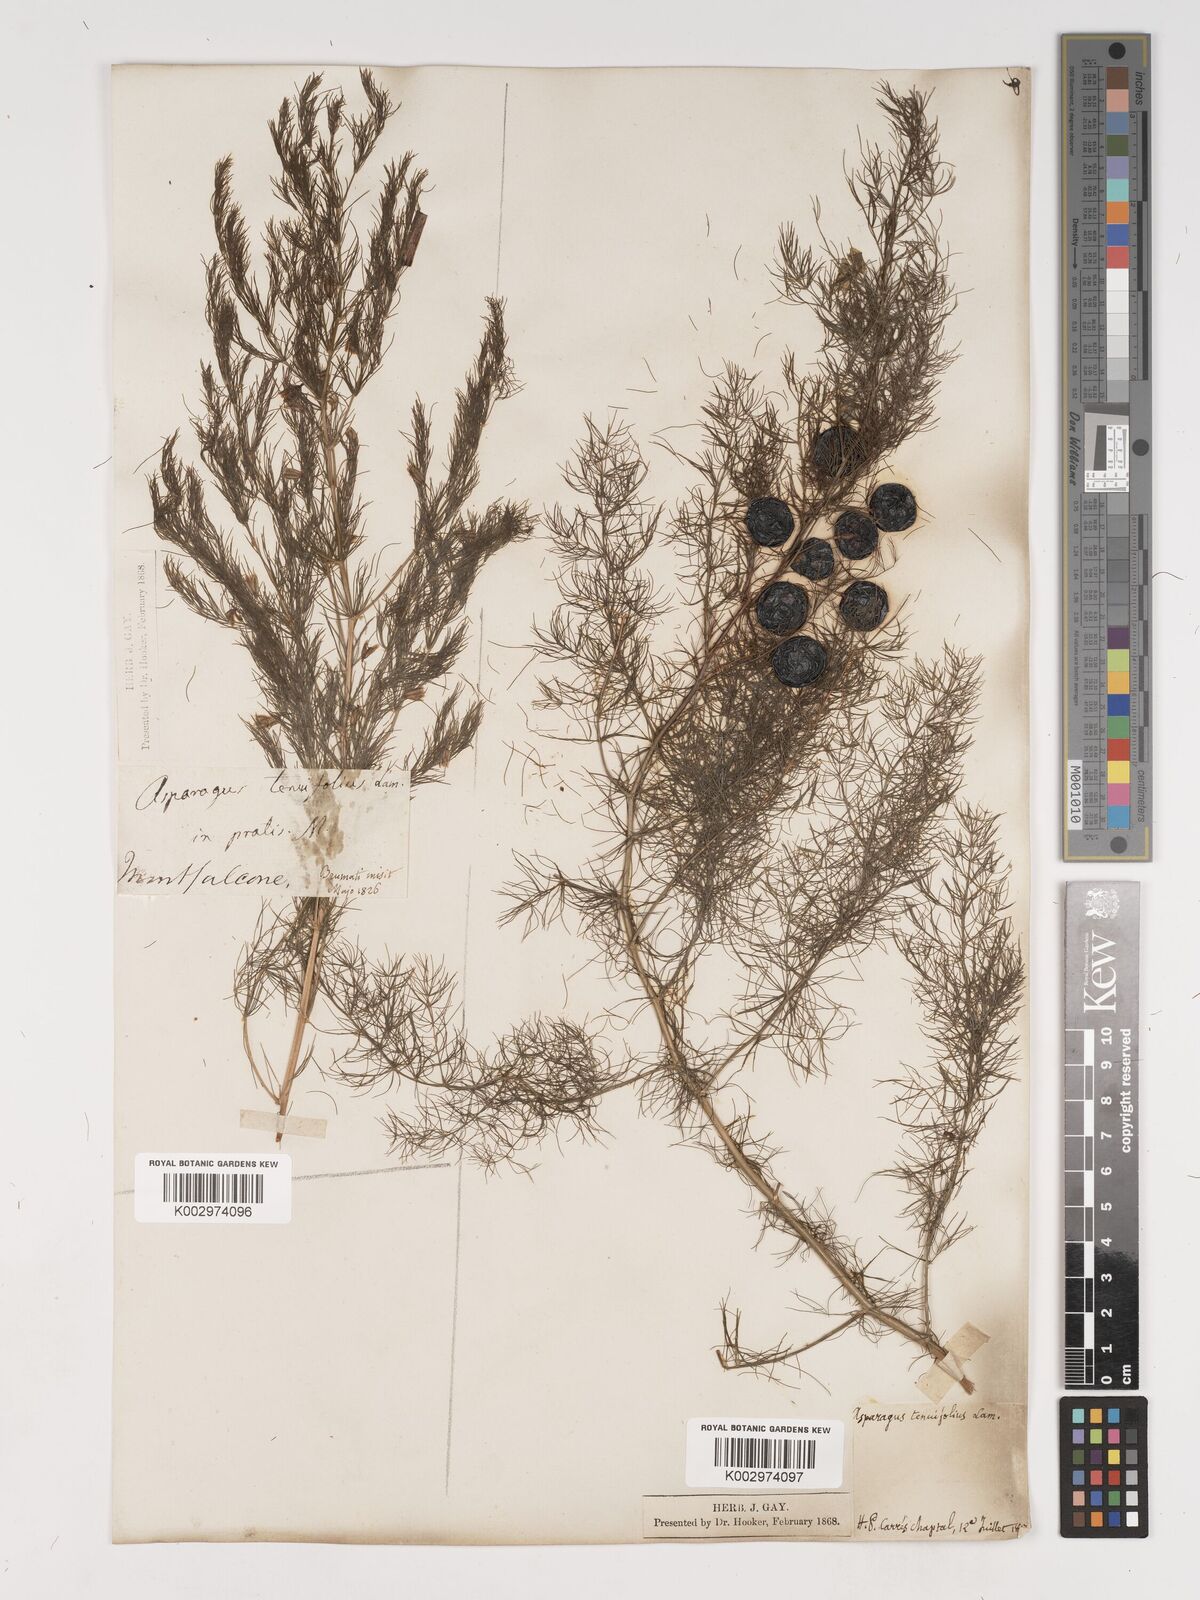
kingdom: Plantae
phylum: Tracheophyta
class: Liliopsida
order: Asparagales
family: Asparagaceae
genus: Asparagus
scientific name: Asparagus tenuifolius
